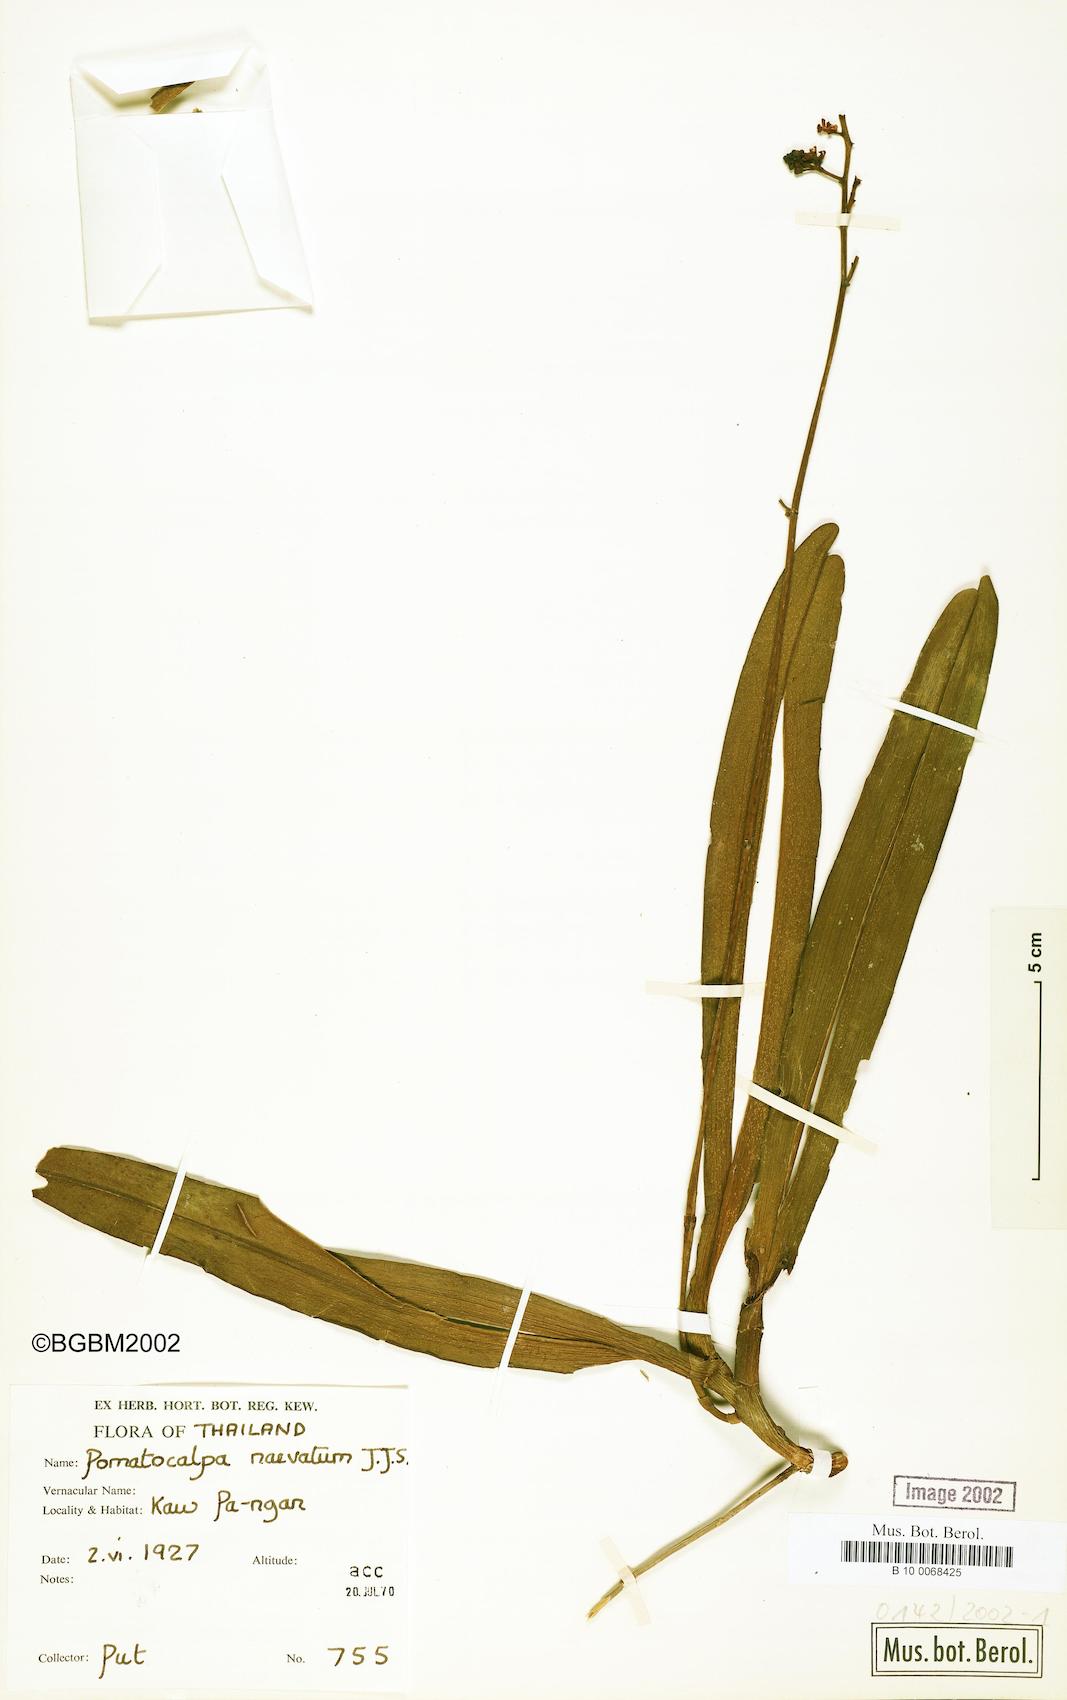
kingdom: Plantae
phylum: Tracheophyta
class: Liliopsida
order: Asparagales
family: Orchidaceae
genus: Pomatocalpa
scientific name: Pomatocalpa maculosum
